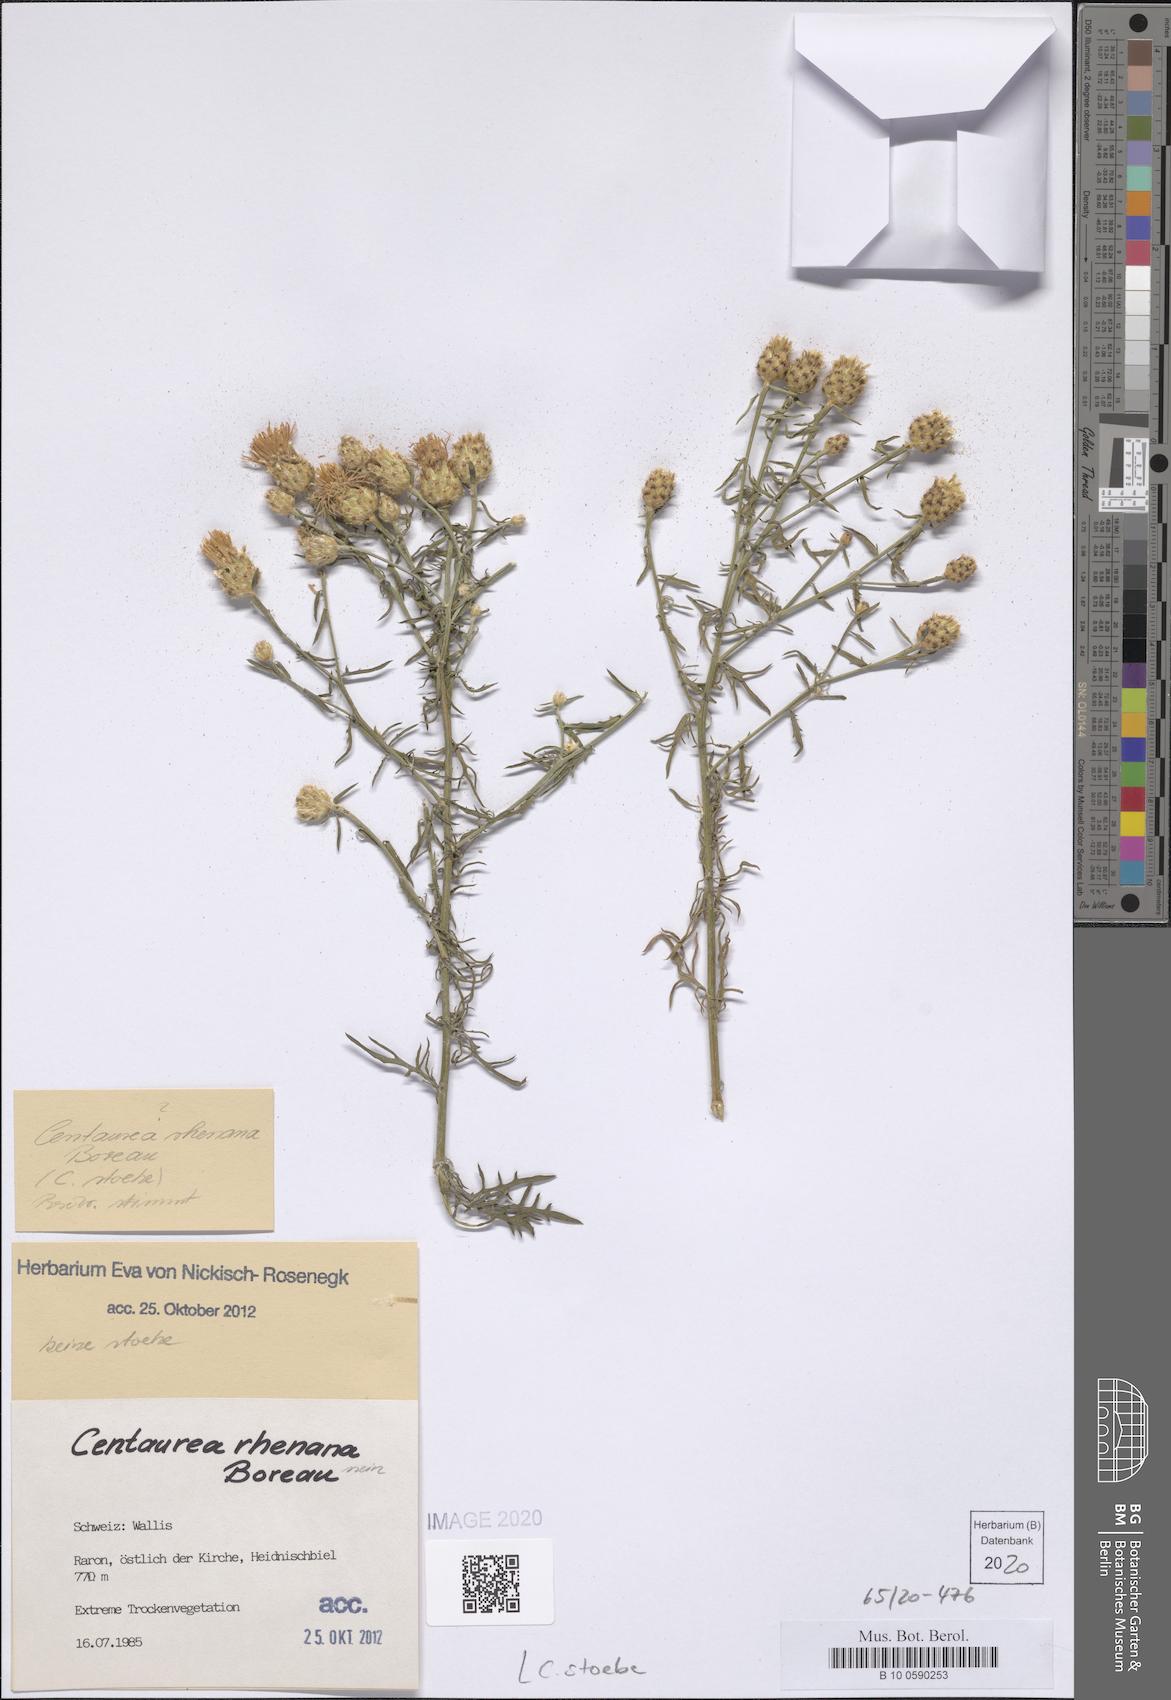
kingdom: Plantae
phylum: Tracheophyta
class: Magnoliopsida
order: Asterales
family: Asteraceae
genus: Centaurea
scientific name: Centaurea stoebe
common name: Spotted knapweed
